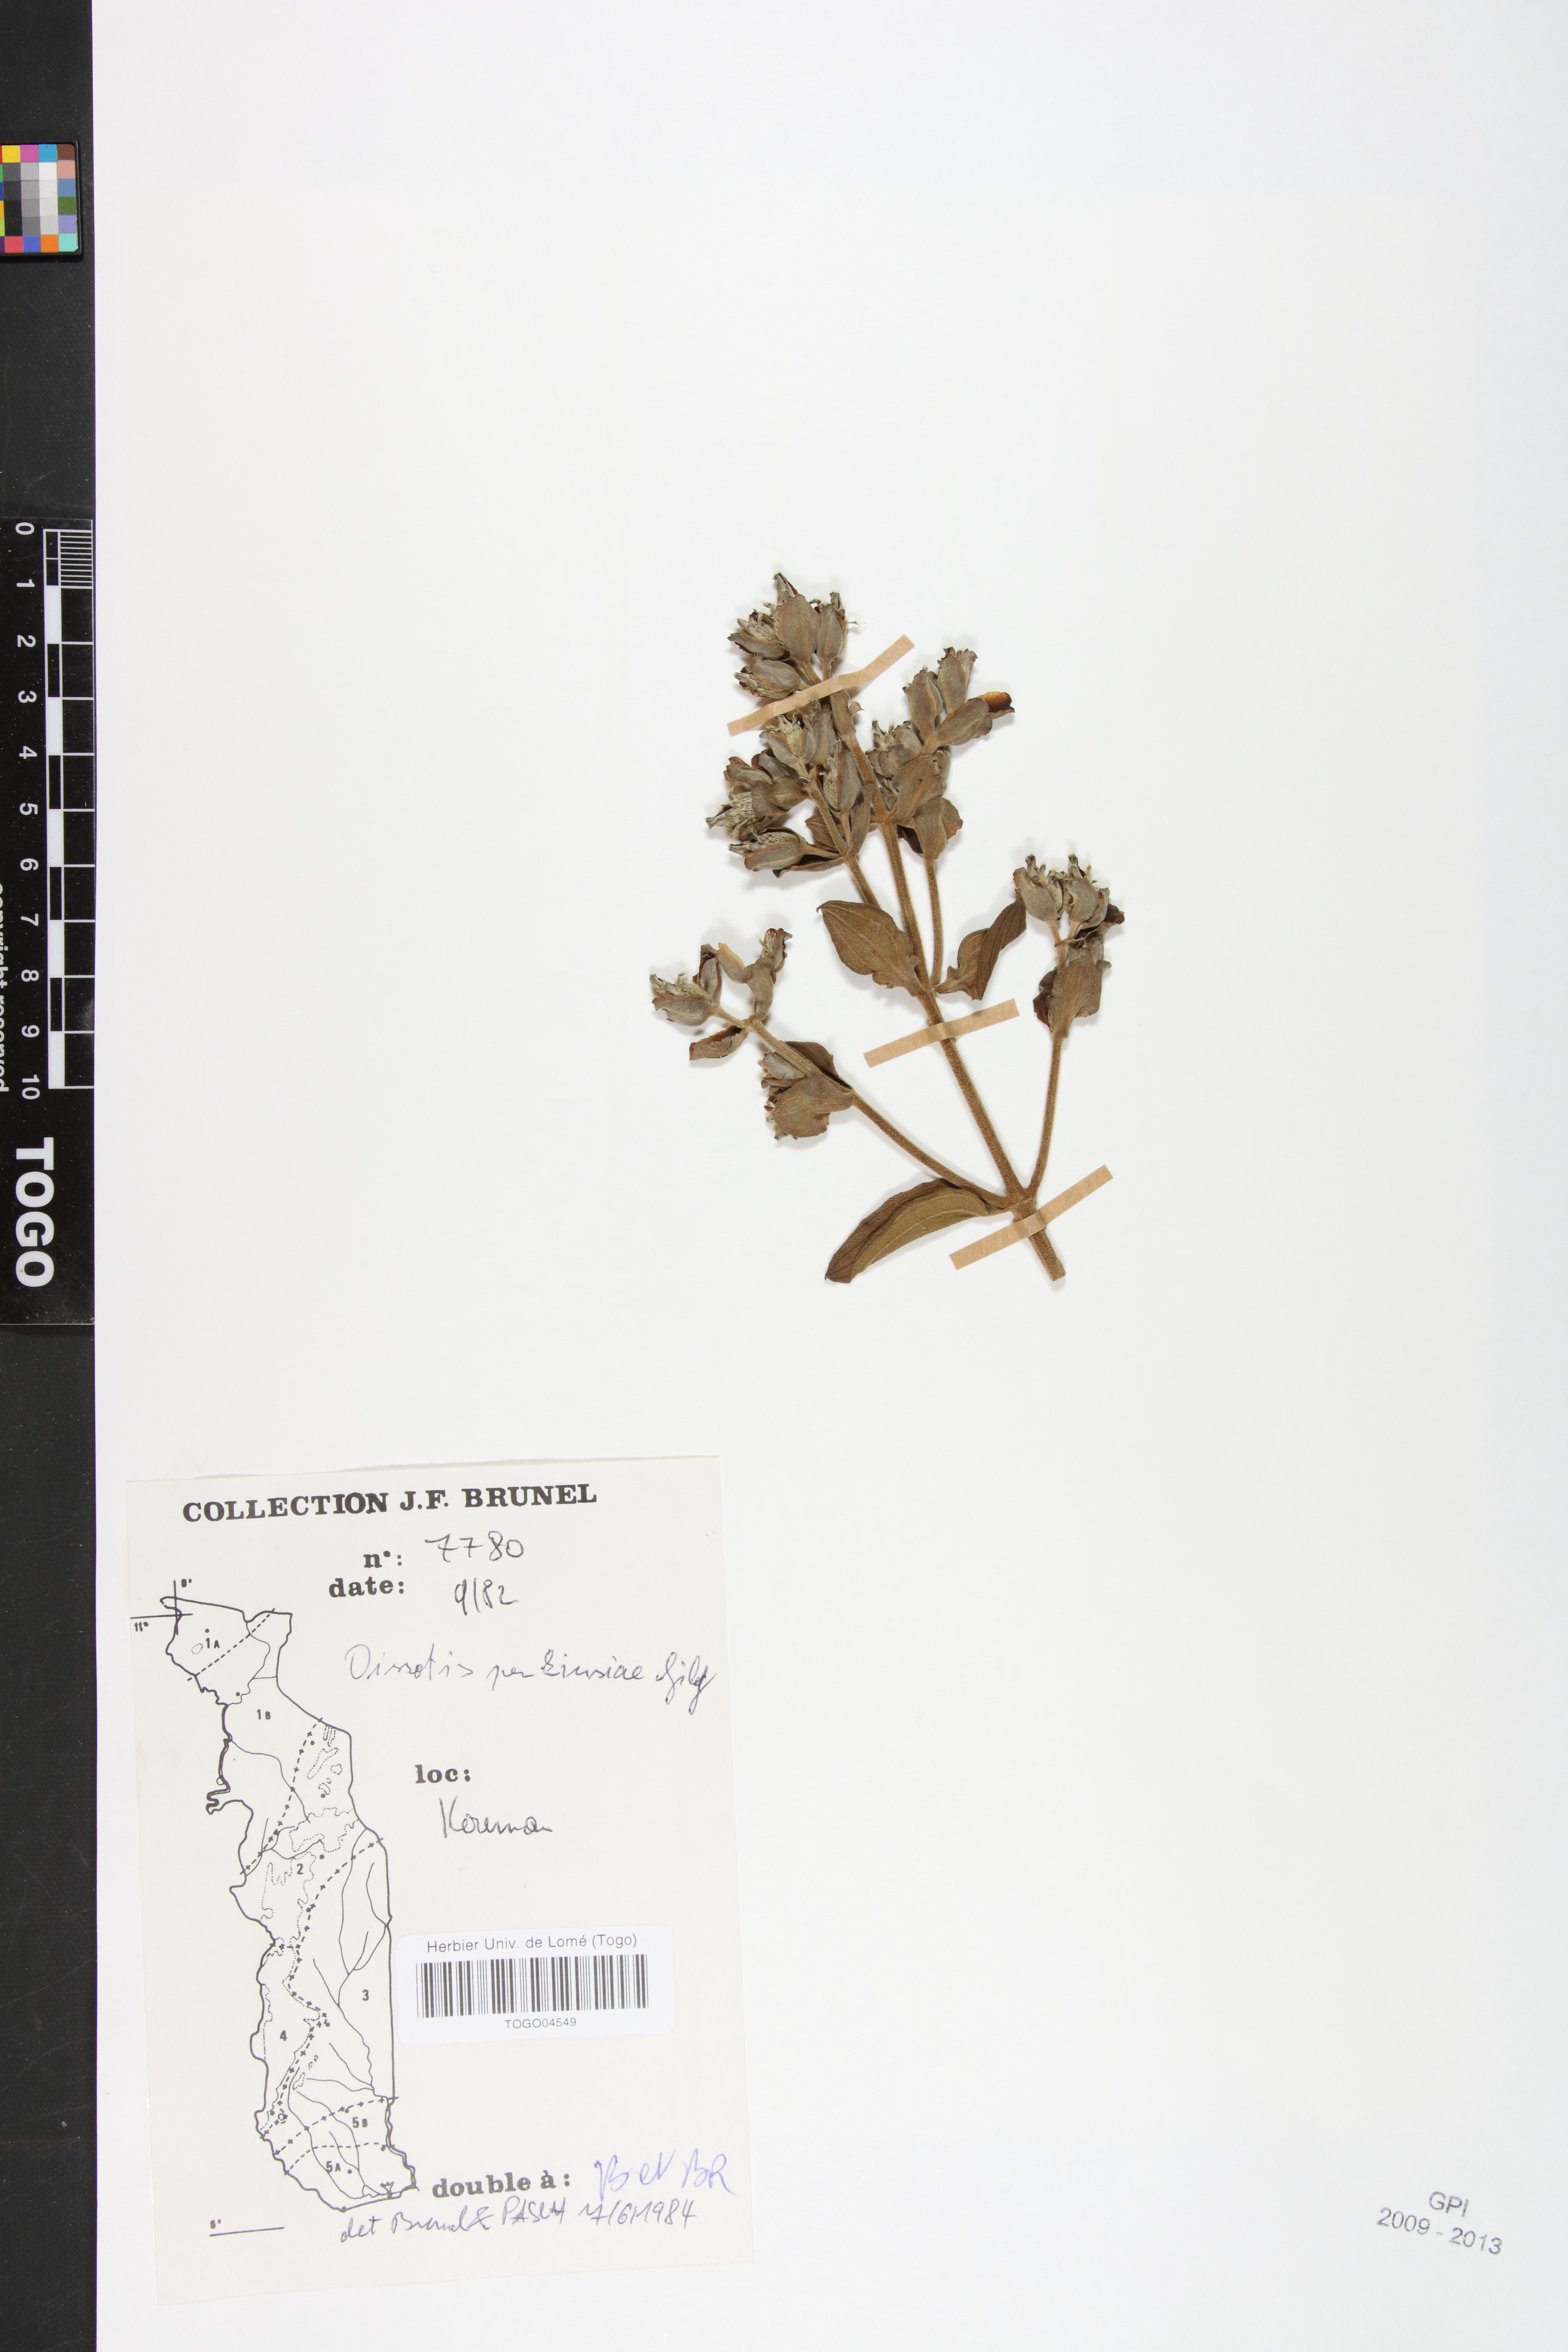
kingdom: Plantae
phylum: Tracheophyta
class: Magnoliopsida
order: Myrtales
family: Melastomataceae
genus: Feliciotis
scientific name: Feliciotis perkinsiae
